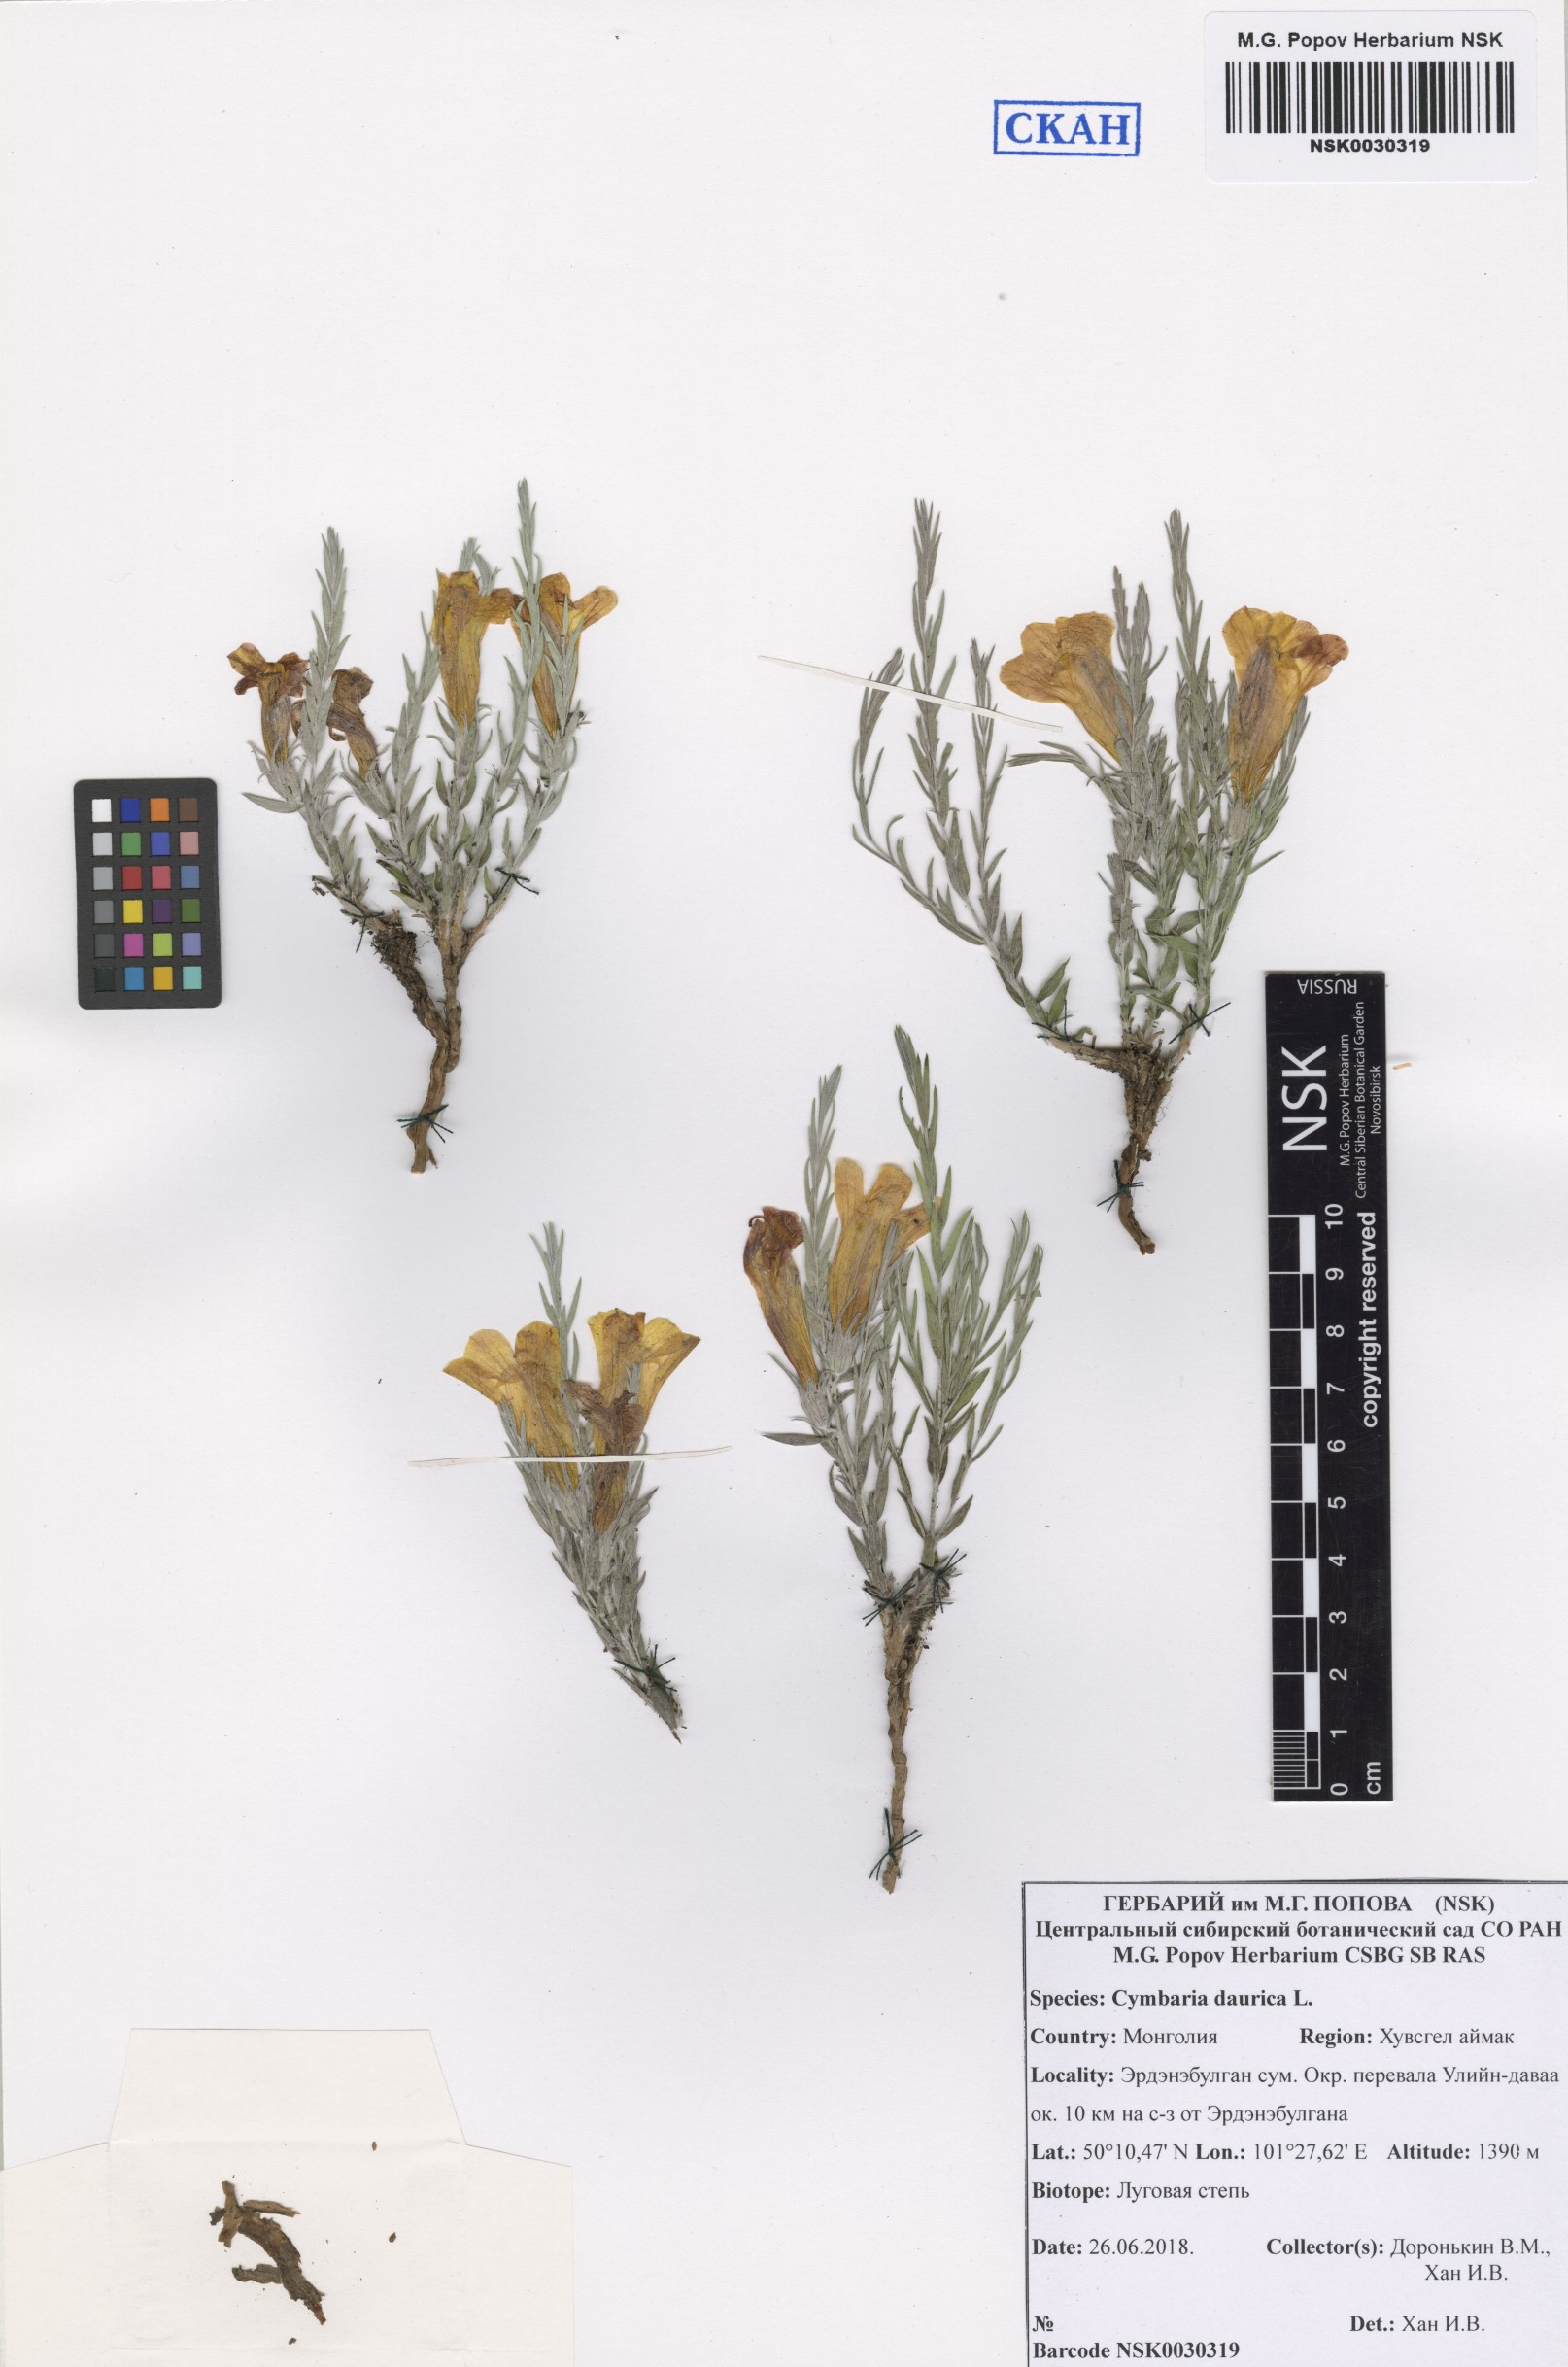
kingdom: Plantae
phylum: Tracheophyta
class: Magnoliopsida
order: Lamiales
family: Orobanchaceae
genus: Cymbaria
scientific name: Cymbaria daurica
